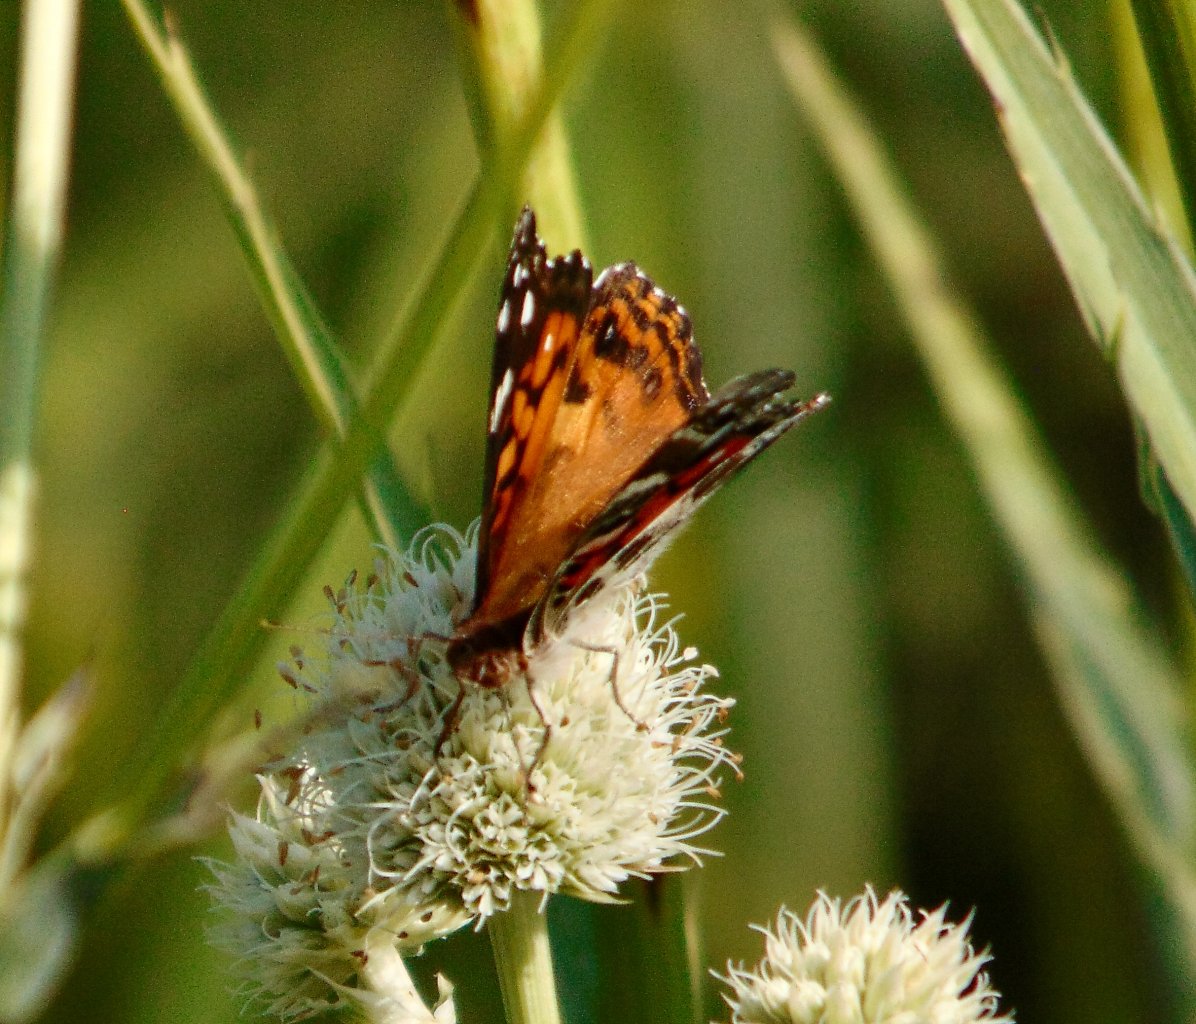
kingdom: Animalia
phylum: Arthropoda
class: Insecta
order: Lepidoptera
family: Nymphalidae
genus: Vanessa
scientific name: Vanessa virginiensis
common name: American Lady
